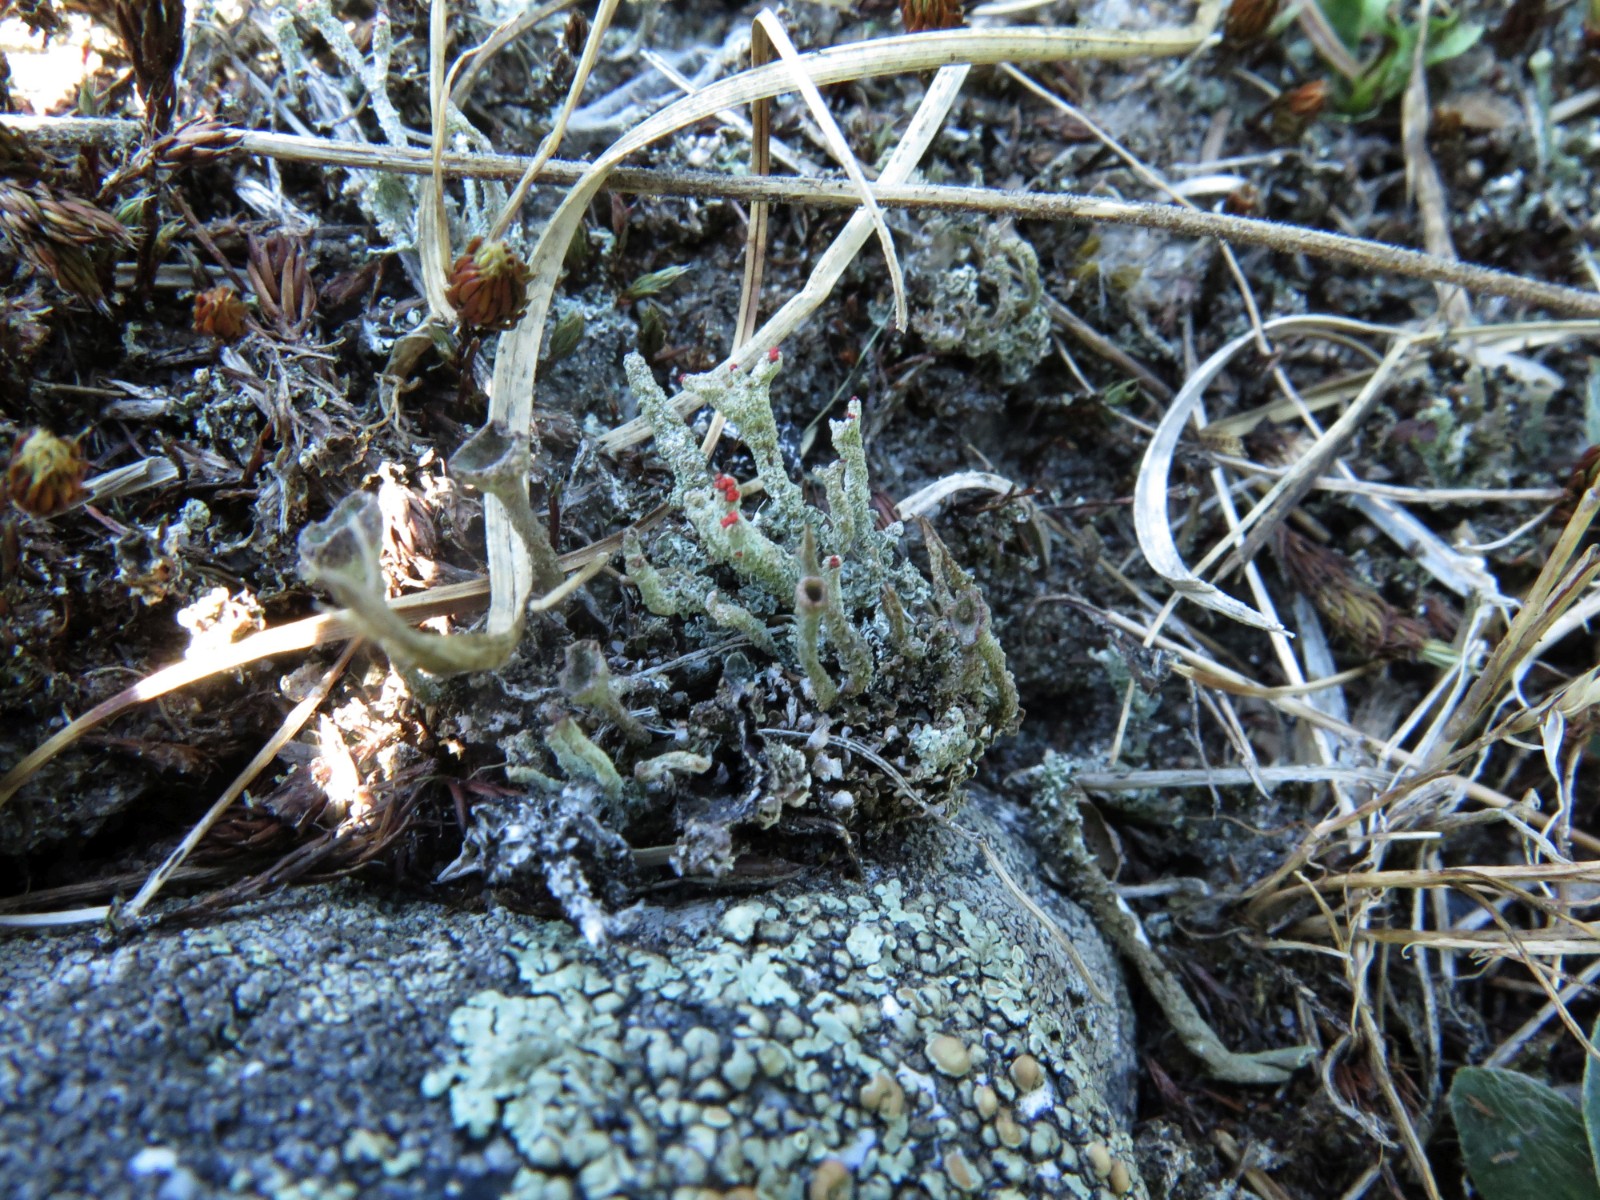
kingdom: Fungi
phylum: Ascomycota
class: Lecanoromycetes
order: Lecanorales
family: Cladoniaceae
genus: Cladonia
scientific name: Cladonia floerkeana
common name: lakrød bægerlav
